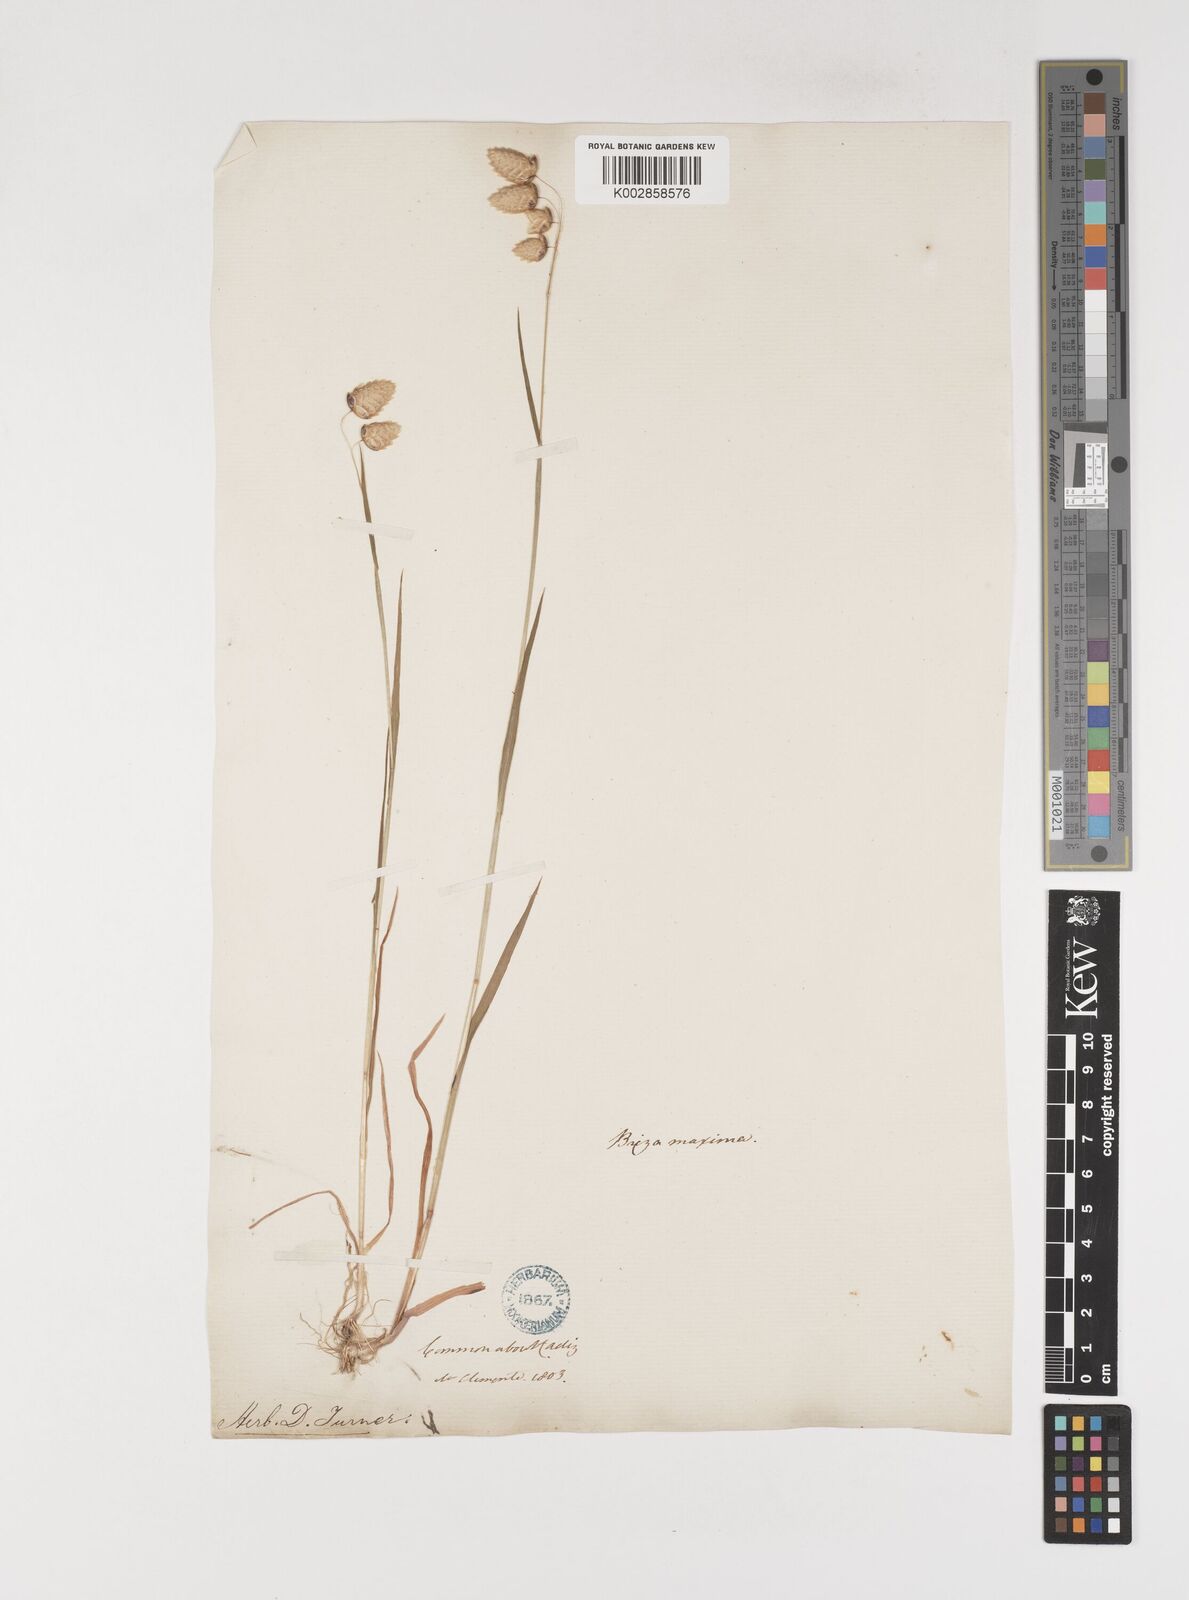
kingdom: Plantae
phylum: Tracheophyta
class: Liliopsida
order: Poales
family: Poaceae
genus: Briza
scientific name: Briza maxima
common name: Big quakinggrass
